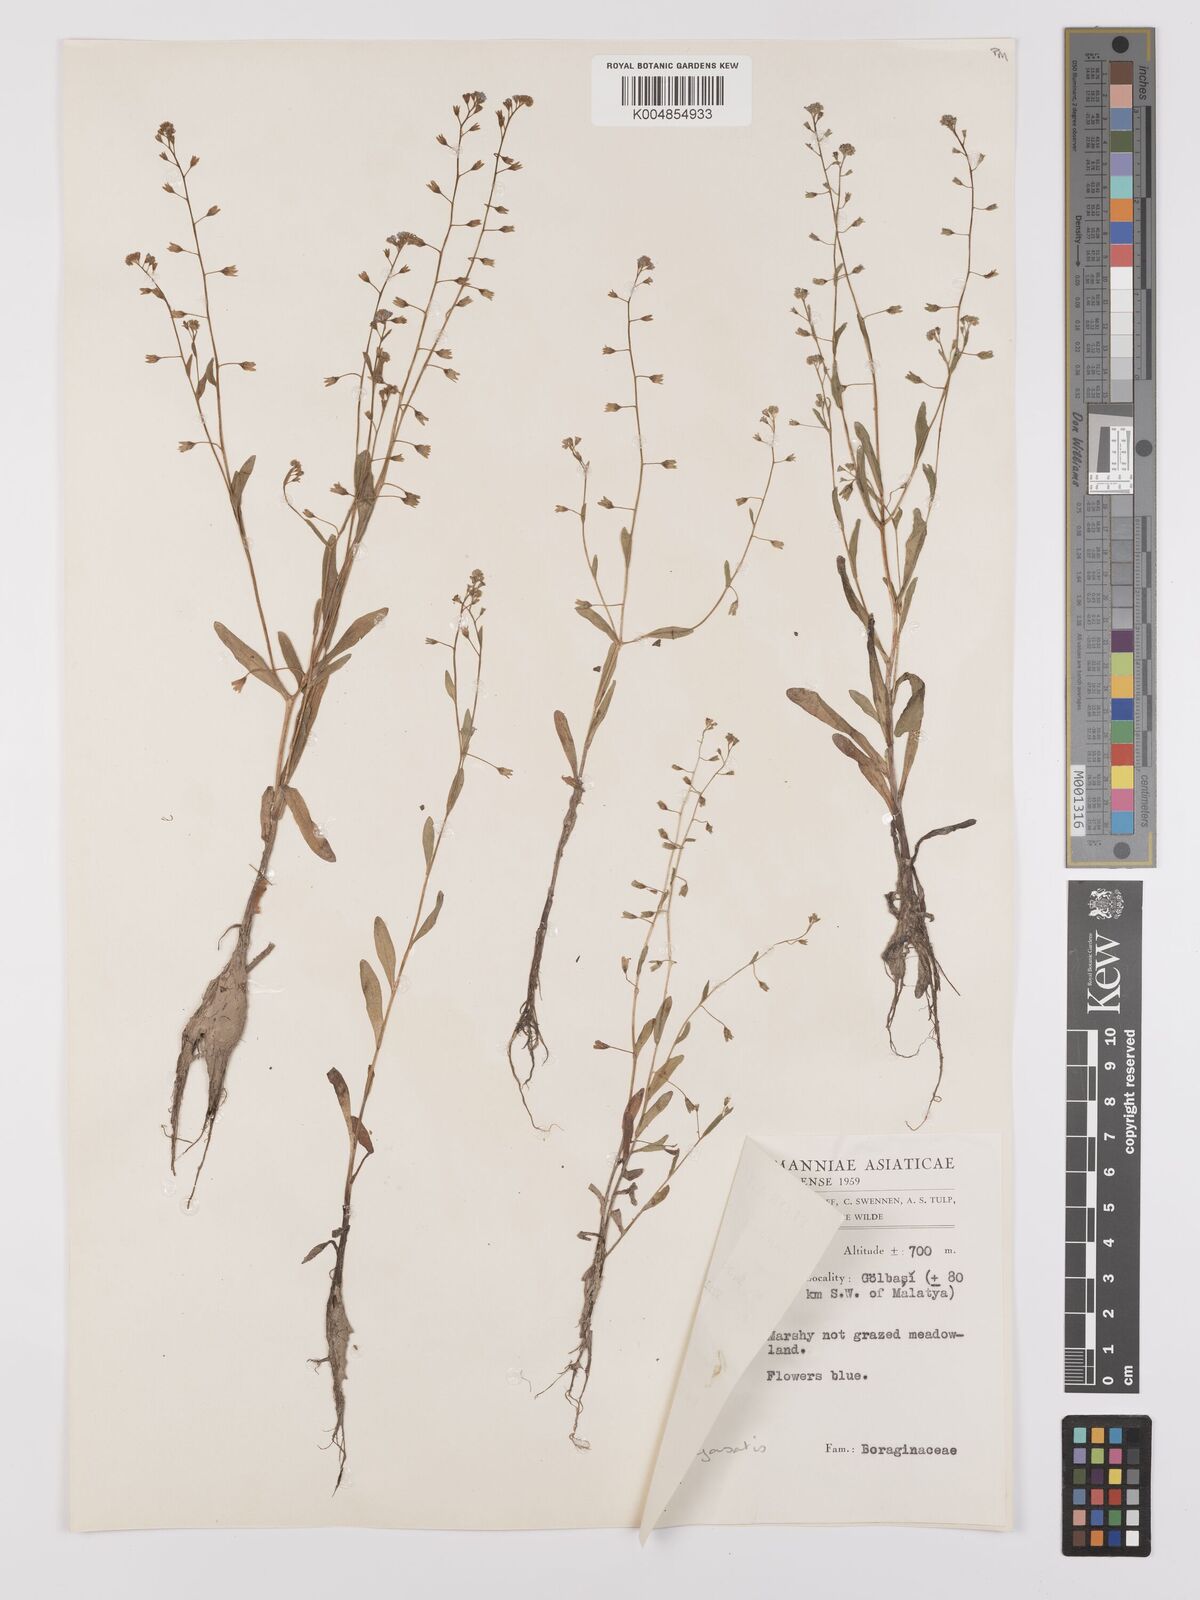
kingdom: Plantae
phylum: Tracheophyta
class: Magnoliopsida
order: Boraginales
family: Boraginaceae
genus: Myosotis
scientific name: Myosotis
